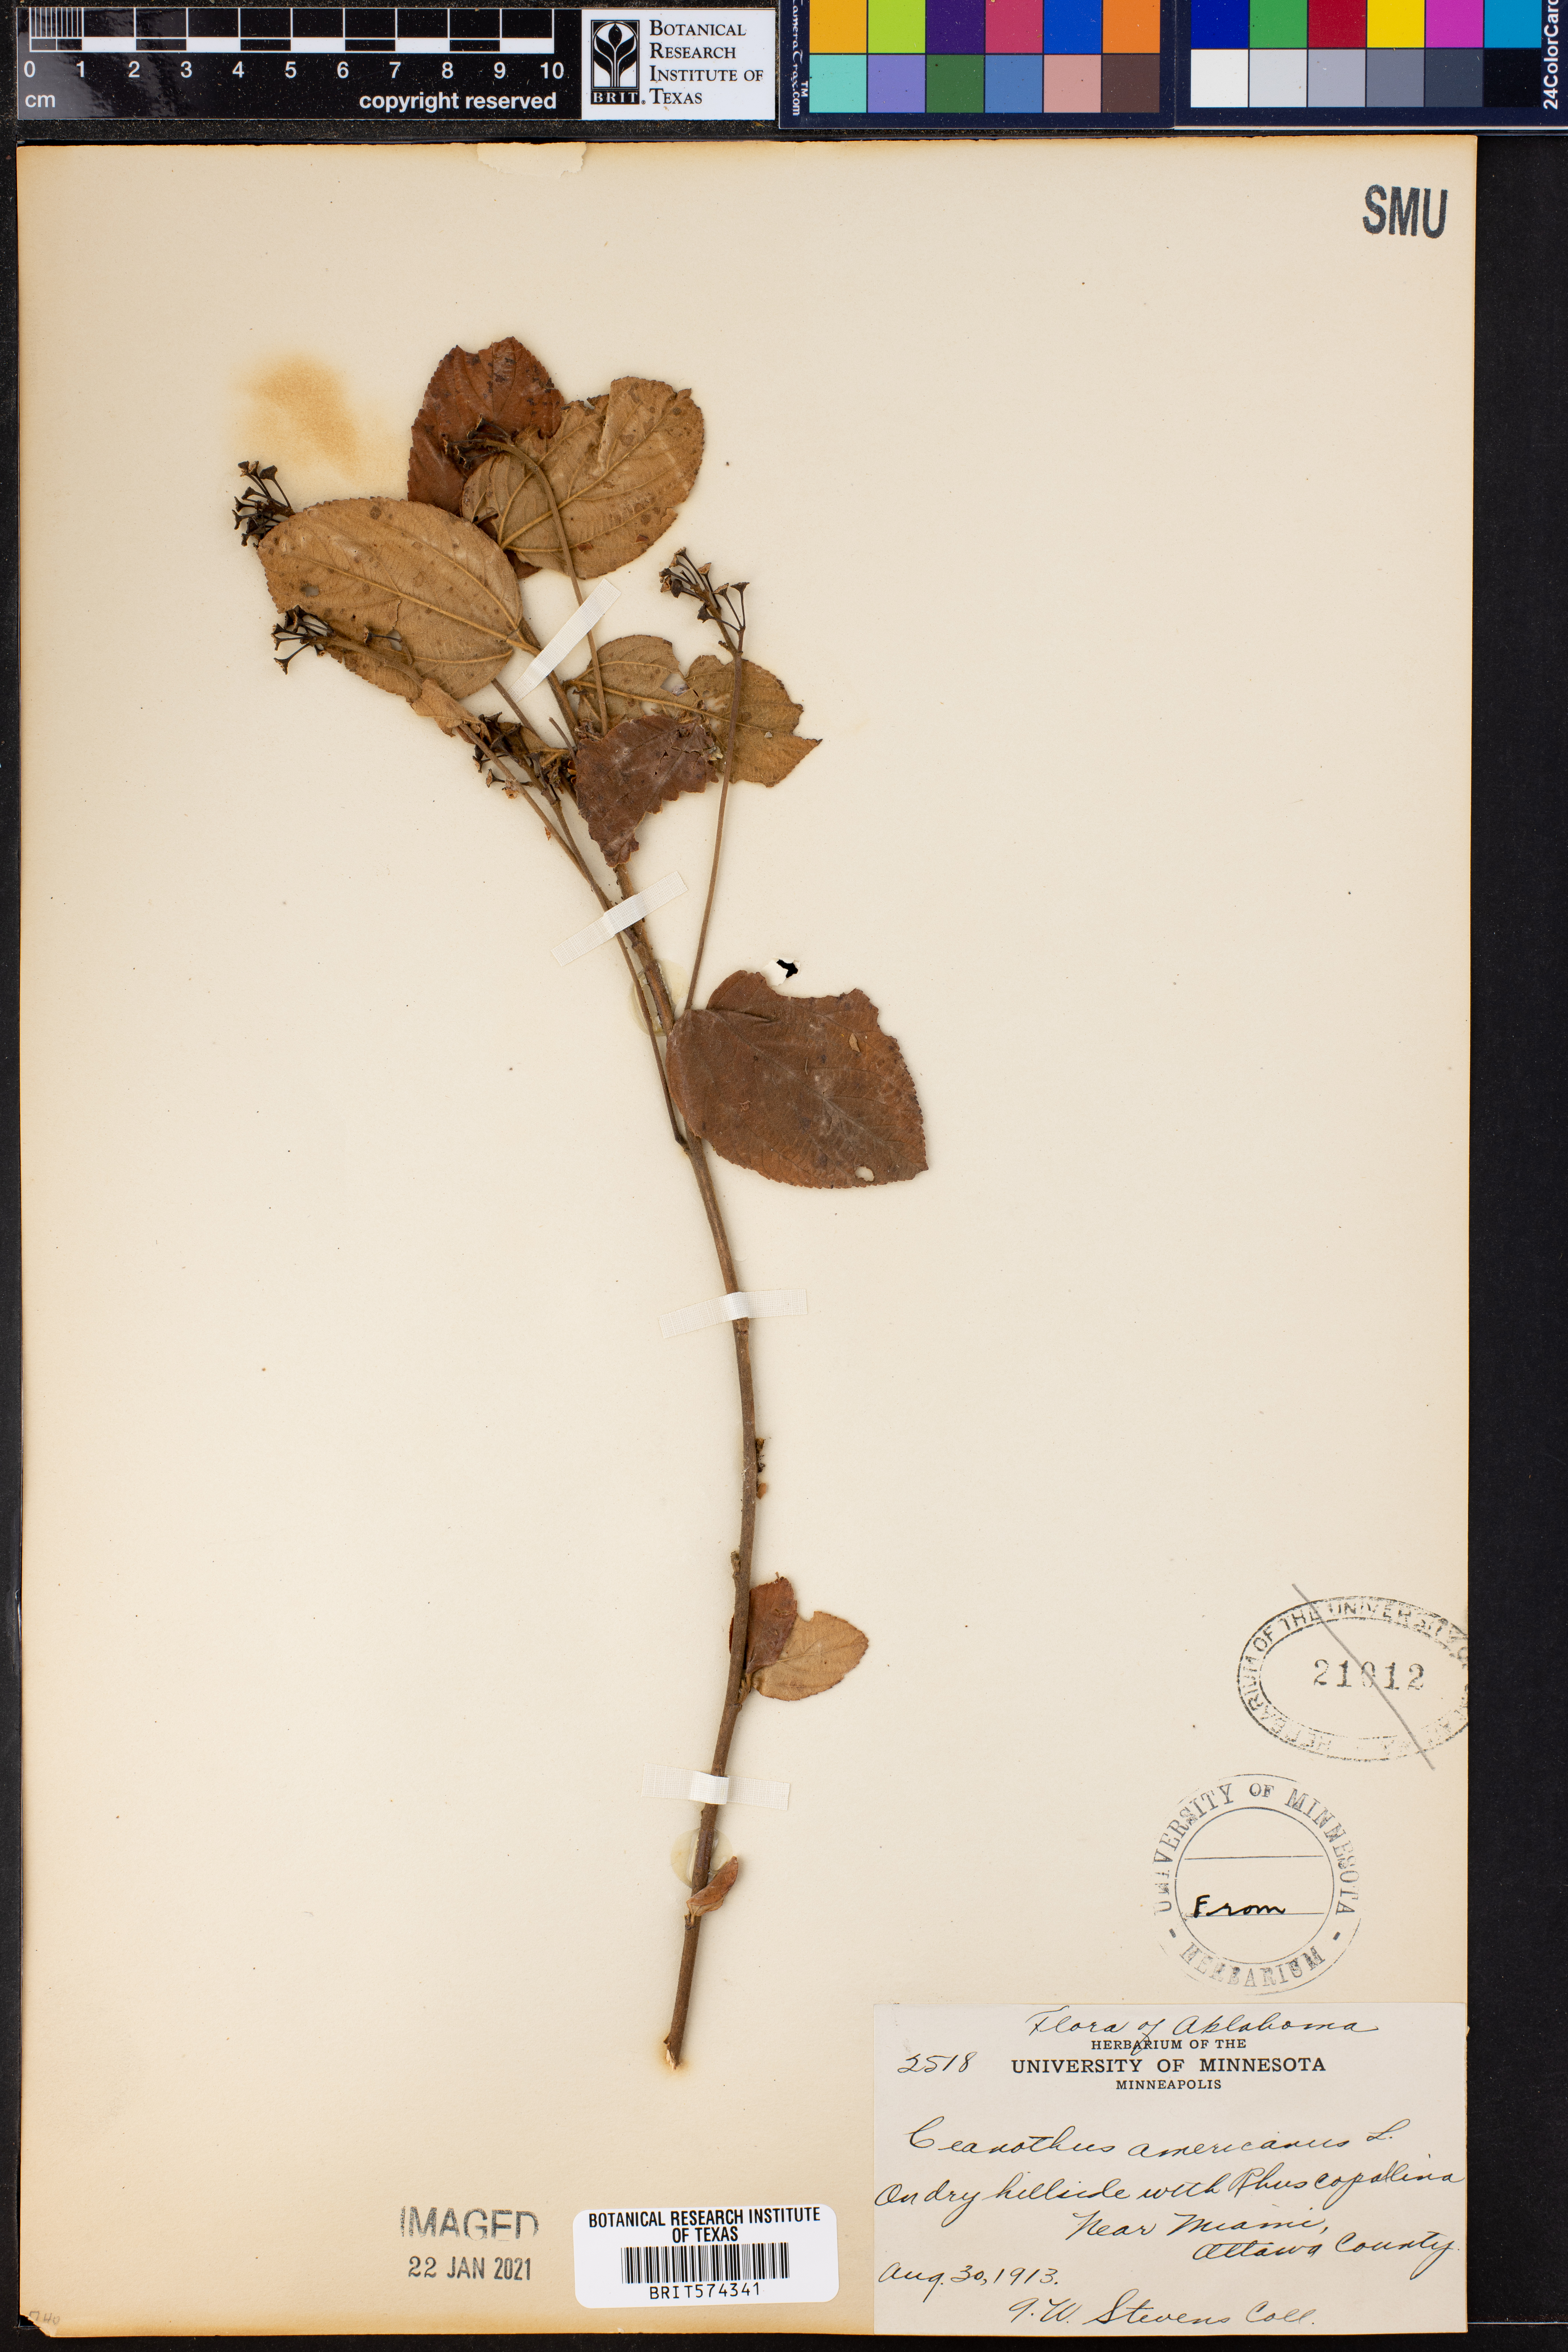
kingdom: Plantae
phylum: Tracheophyta
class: Magnoliopsida
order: Rosales
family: Rhamnaceae
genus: Ceanothus
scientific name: Ceanothus americanus
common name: Redroot
